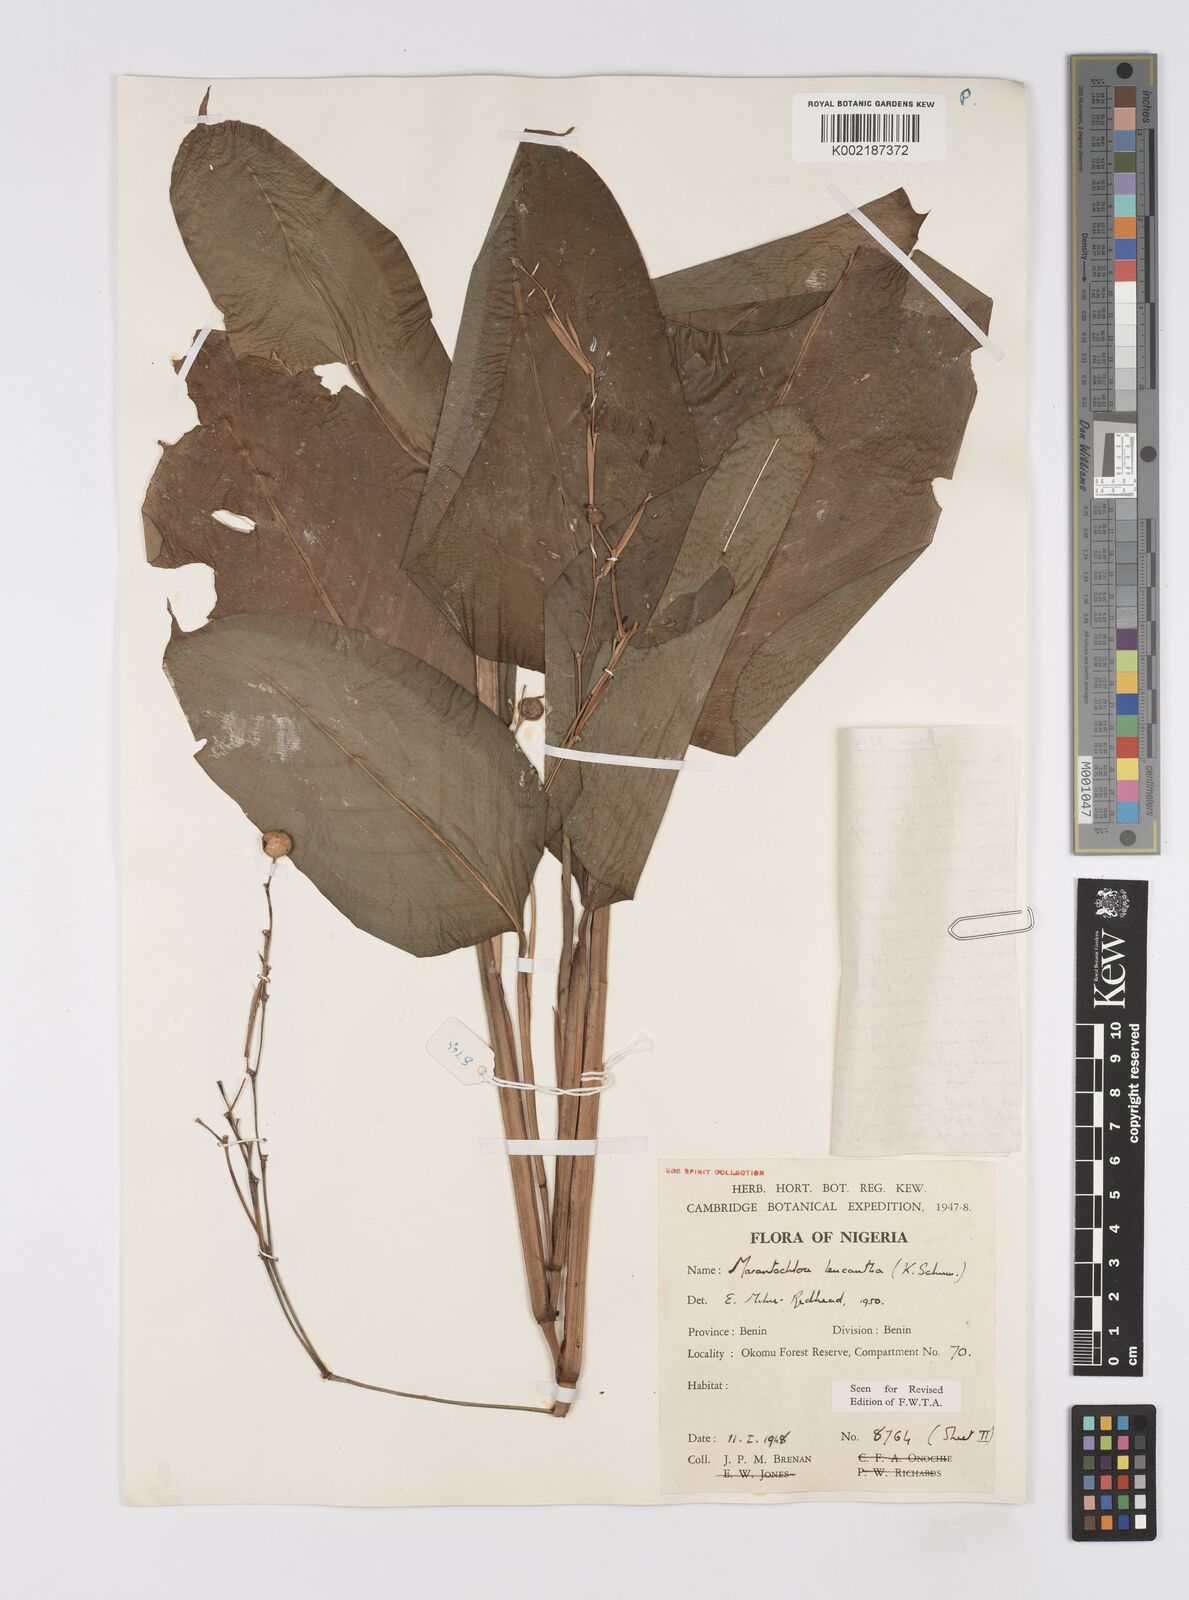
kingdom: Plantae
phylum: Tracheophyta
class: Liliopsida
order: Zingiberales
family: Marantaceae
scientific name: Marantaceae
